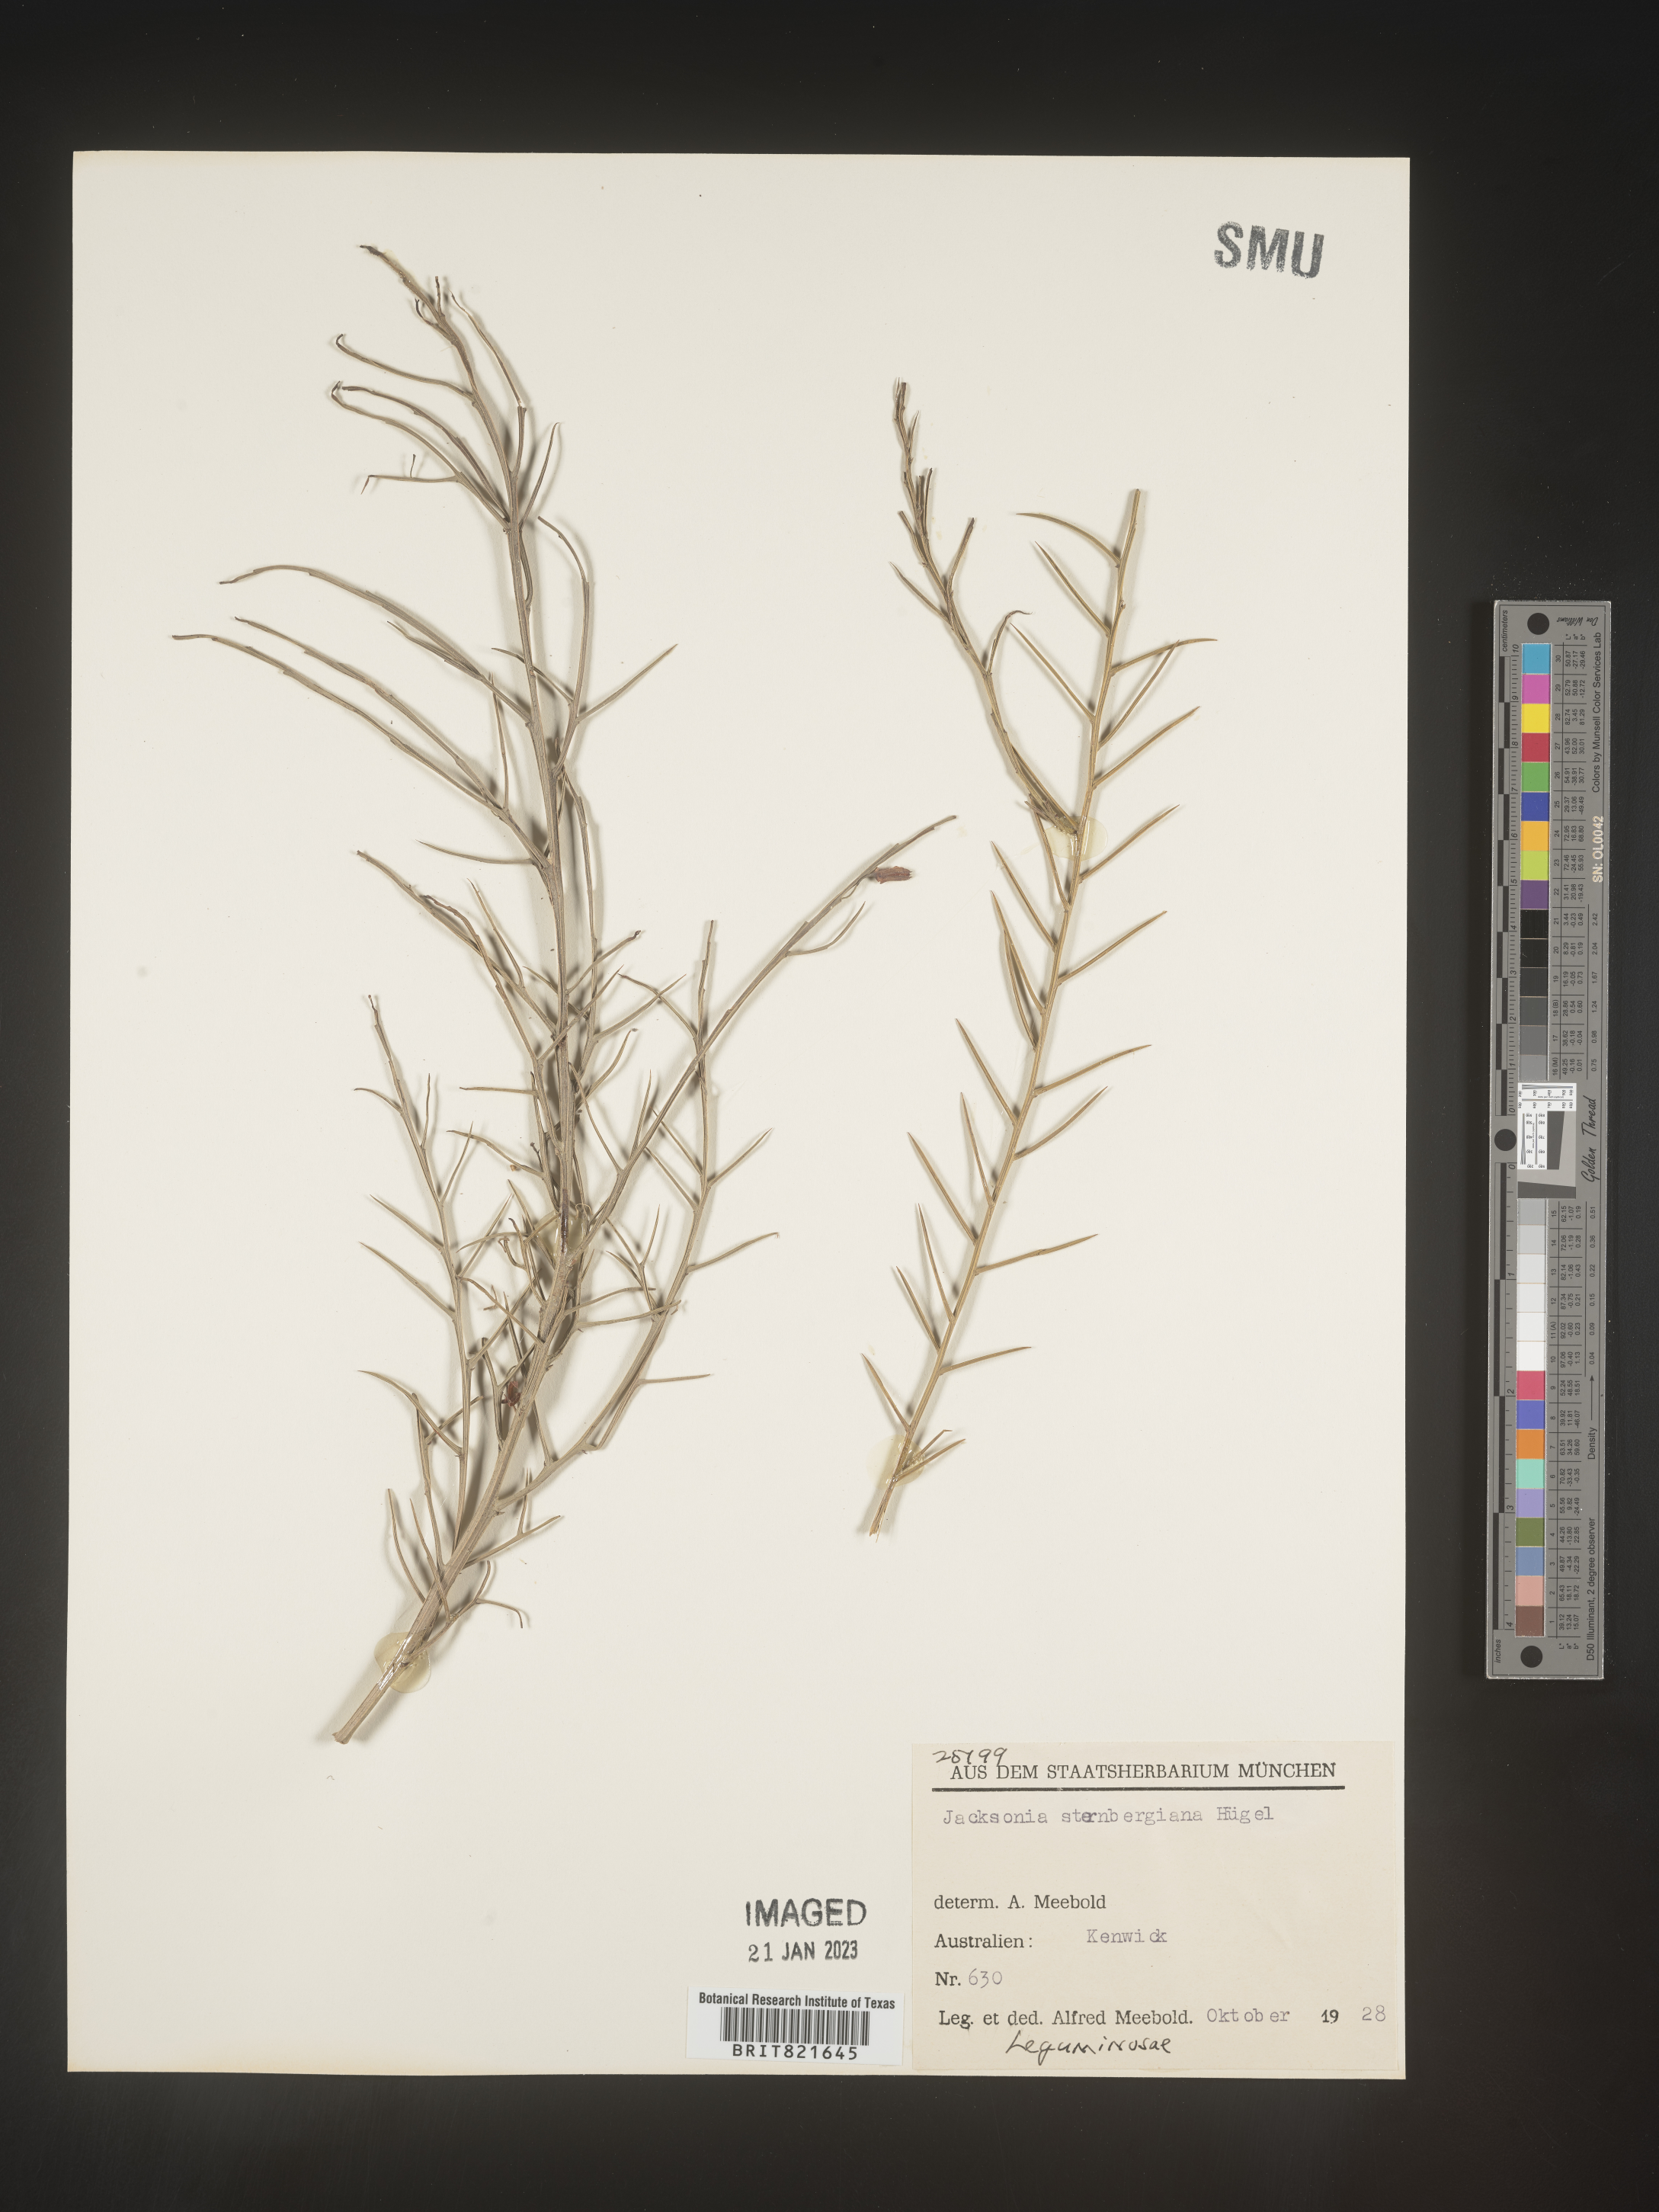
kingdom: Plantae
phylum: Tracheophyta
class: Magnoliopsida
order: Fabales
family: Fabaceae
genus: Jacksonia
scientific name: Jacksonia
